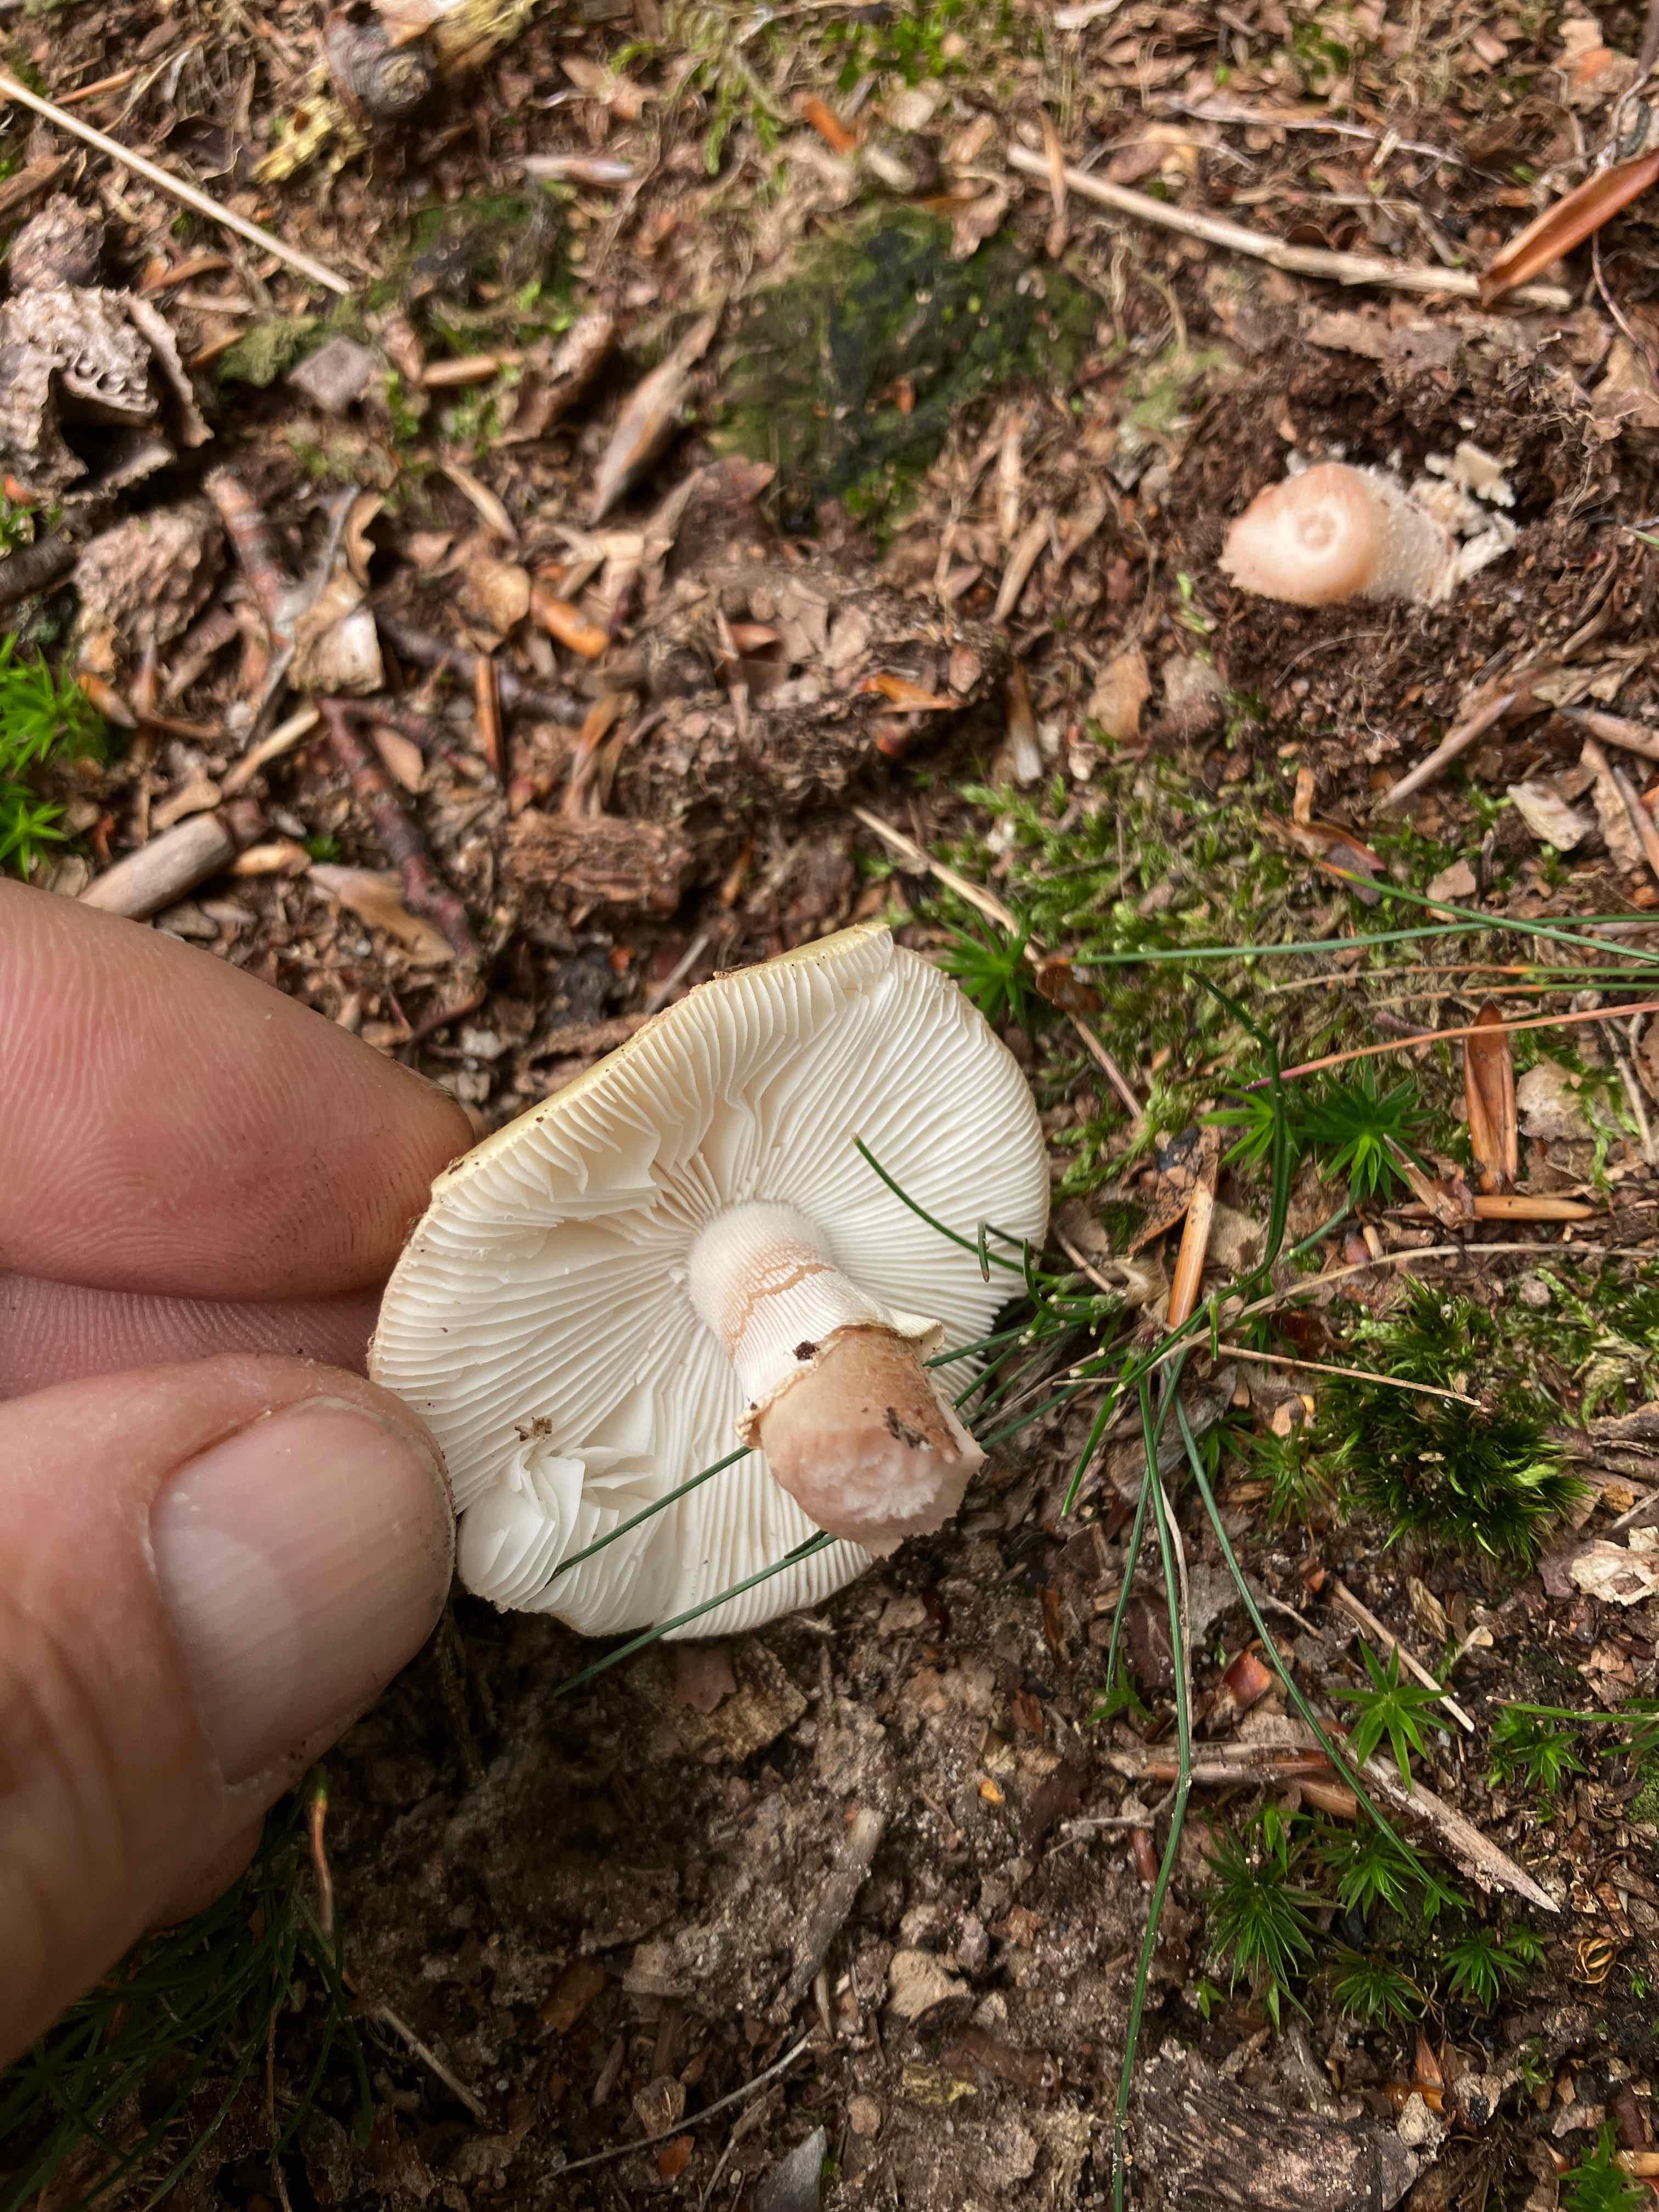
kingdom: Fungi
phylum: Basidiomycota
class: Agaricomycetes
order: Agaricales
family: Amanitaceae
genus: Amanita
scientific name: Amanita rubescens
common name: rødmende fluesvamp
